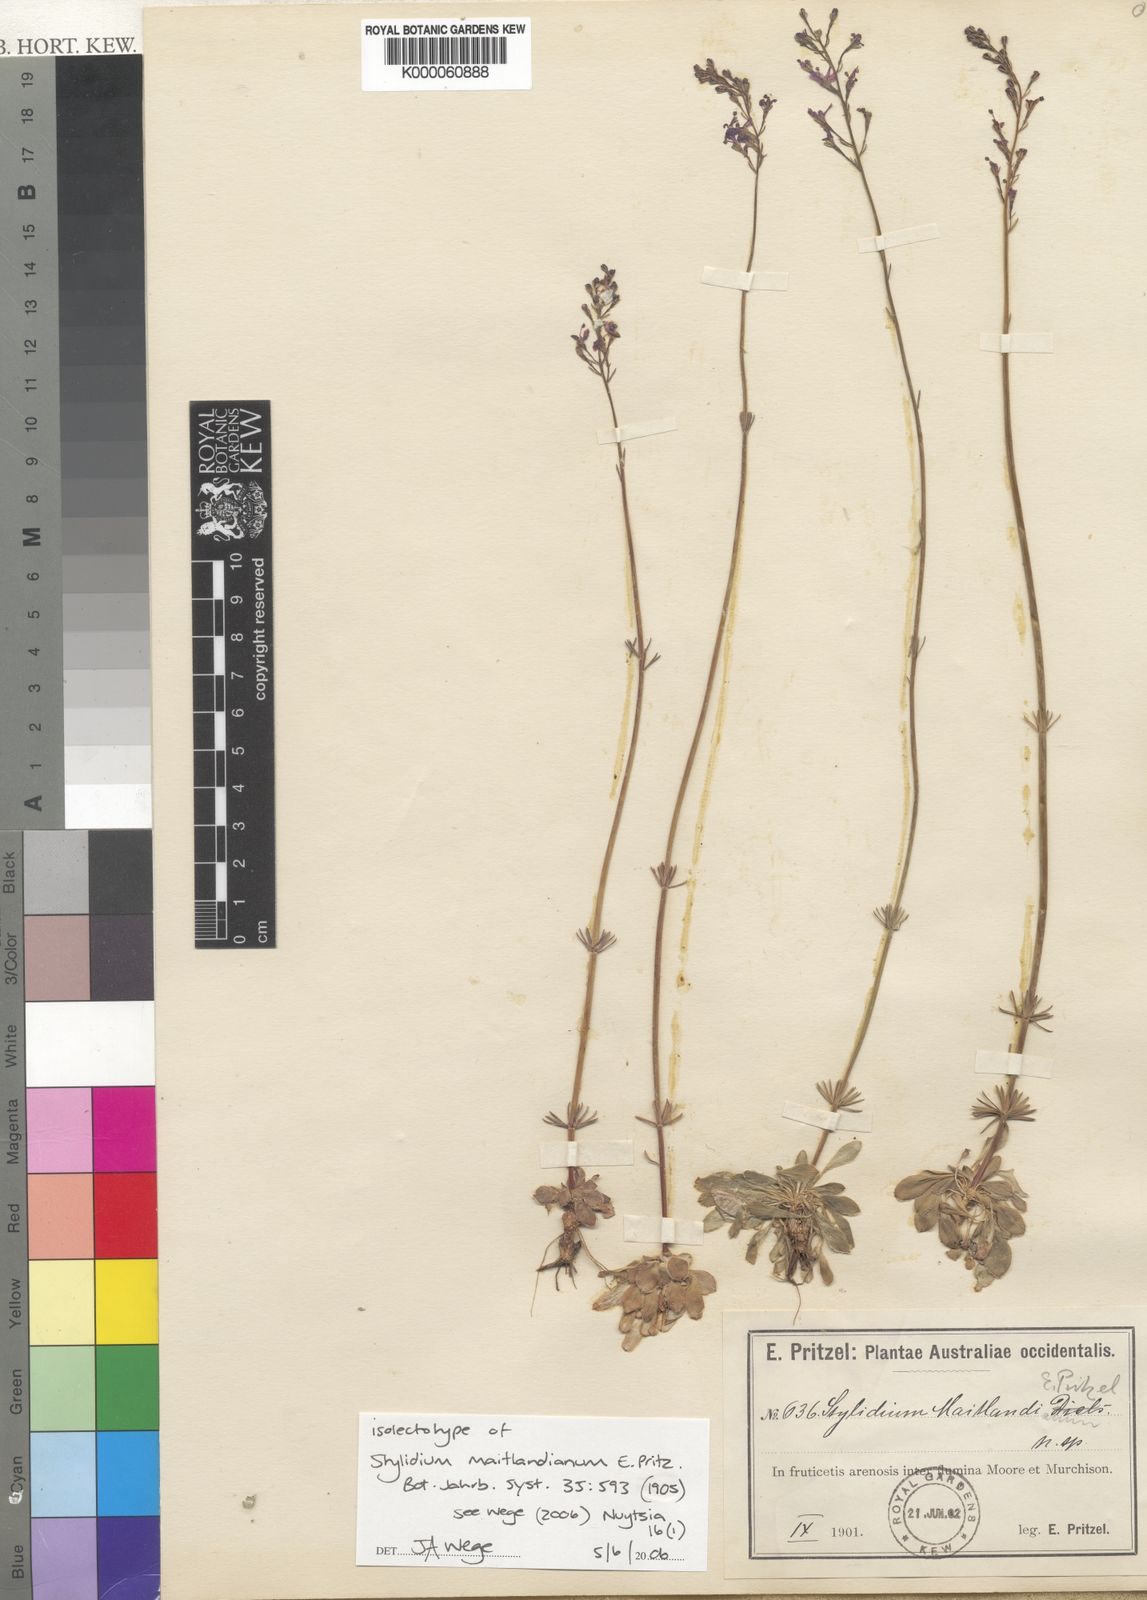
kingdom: Plantae
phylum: Tracheophyta
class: Magnoliopsida
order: Asterales
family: Stylidiaceae
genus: Stylidium
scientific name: Stylidium maitlandianum
